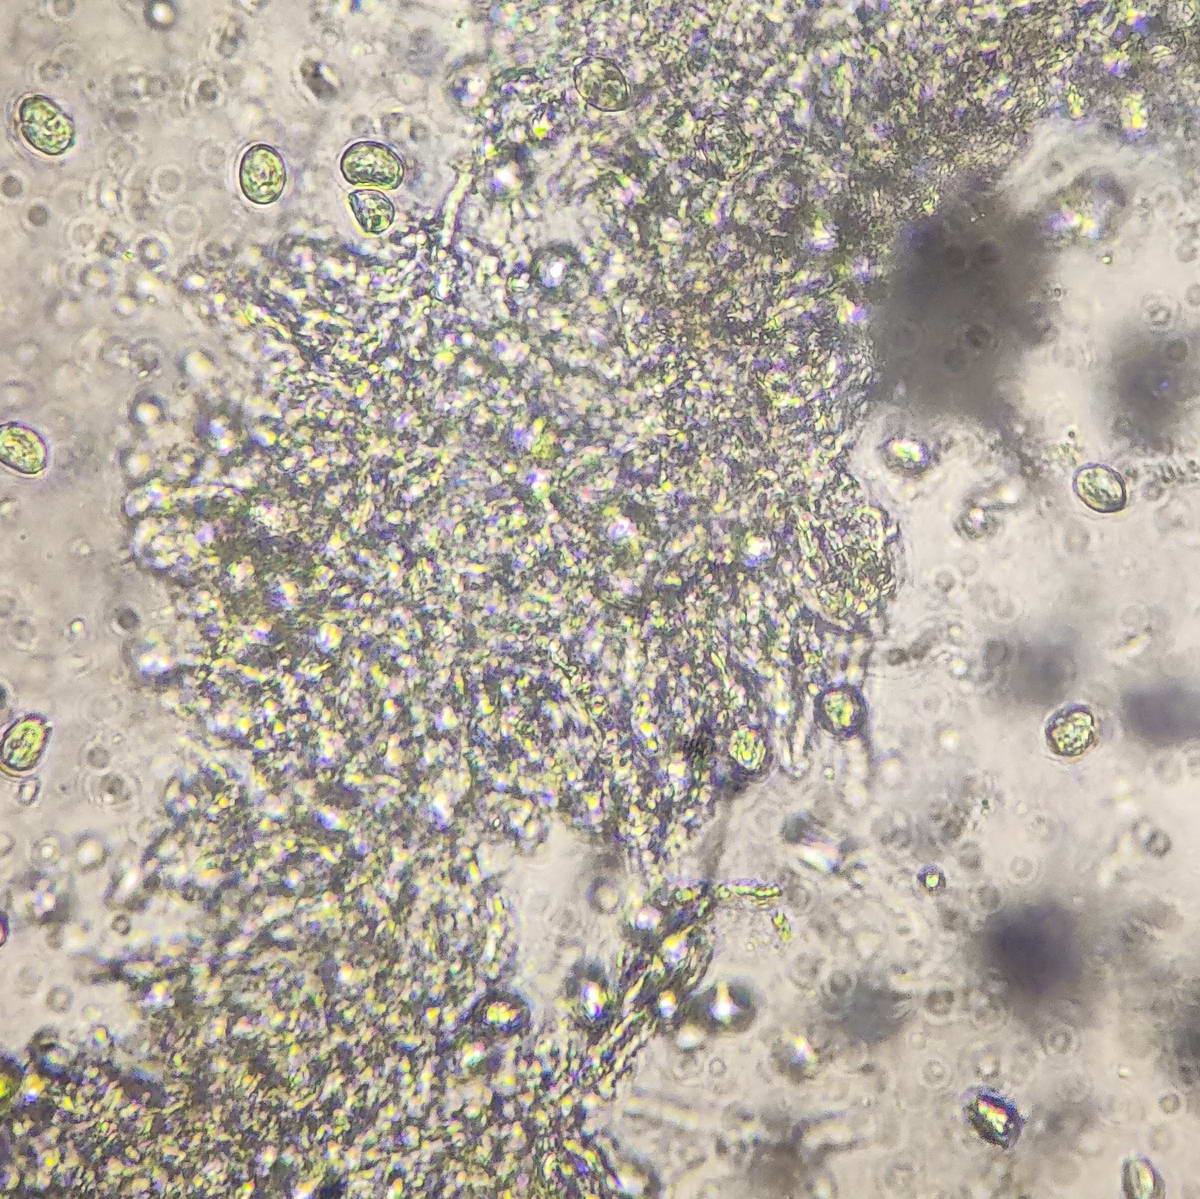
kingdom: Fungi
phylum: Basidiomycota
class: Agaricomycetes
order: Agaricales
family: Hygrophoraceae
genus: Hygrocybe
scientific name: Hygrocybe acutoconica
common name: Konrads vokshat
